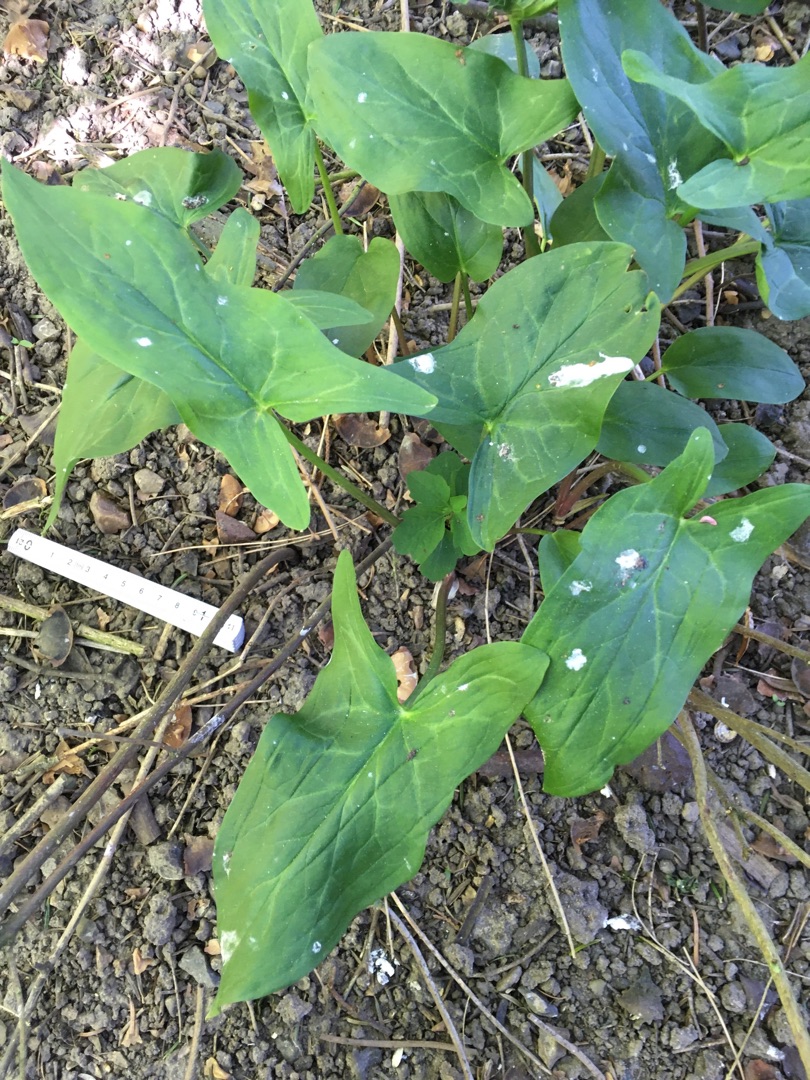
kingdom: Plantae
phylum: Tracheophyta
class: Liliopsida
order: Alismatales
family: Araceae
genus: Arum
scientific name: Arum italicum
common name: Italiensk arum
